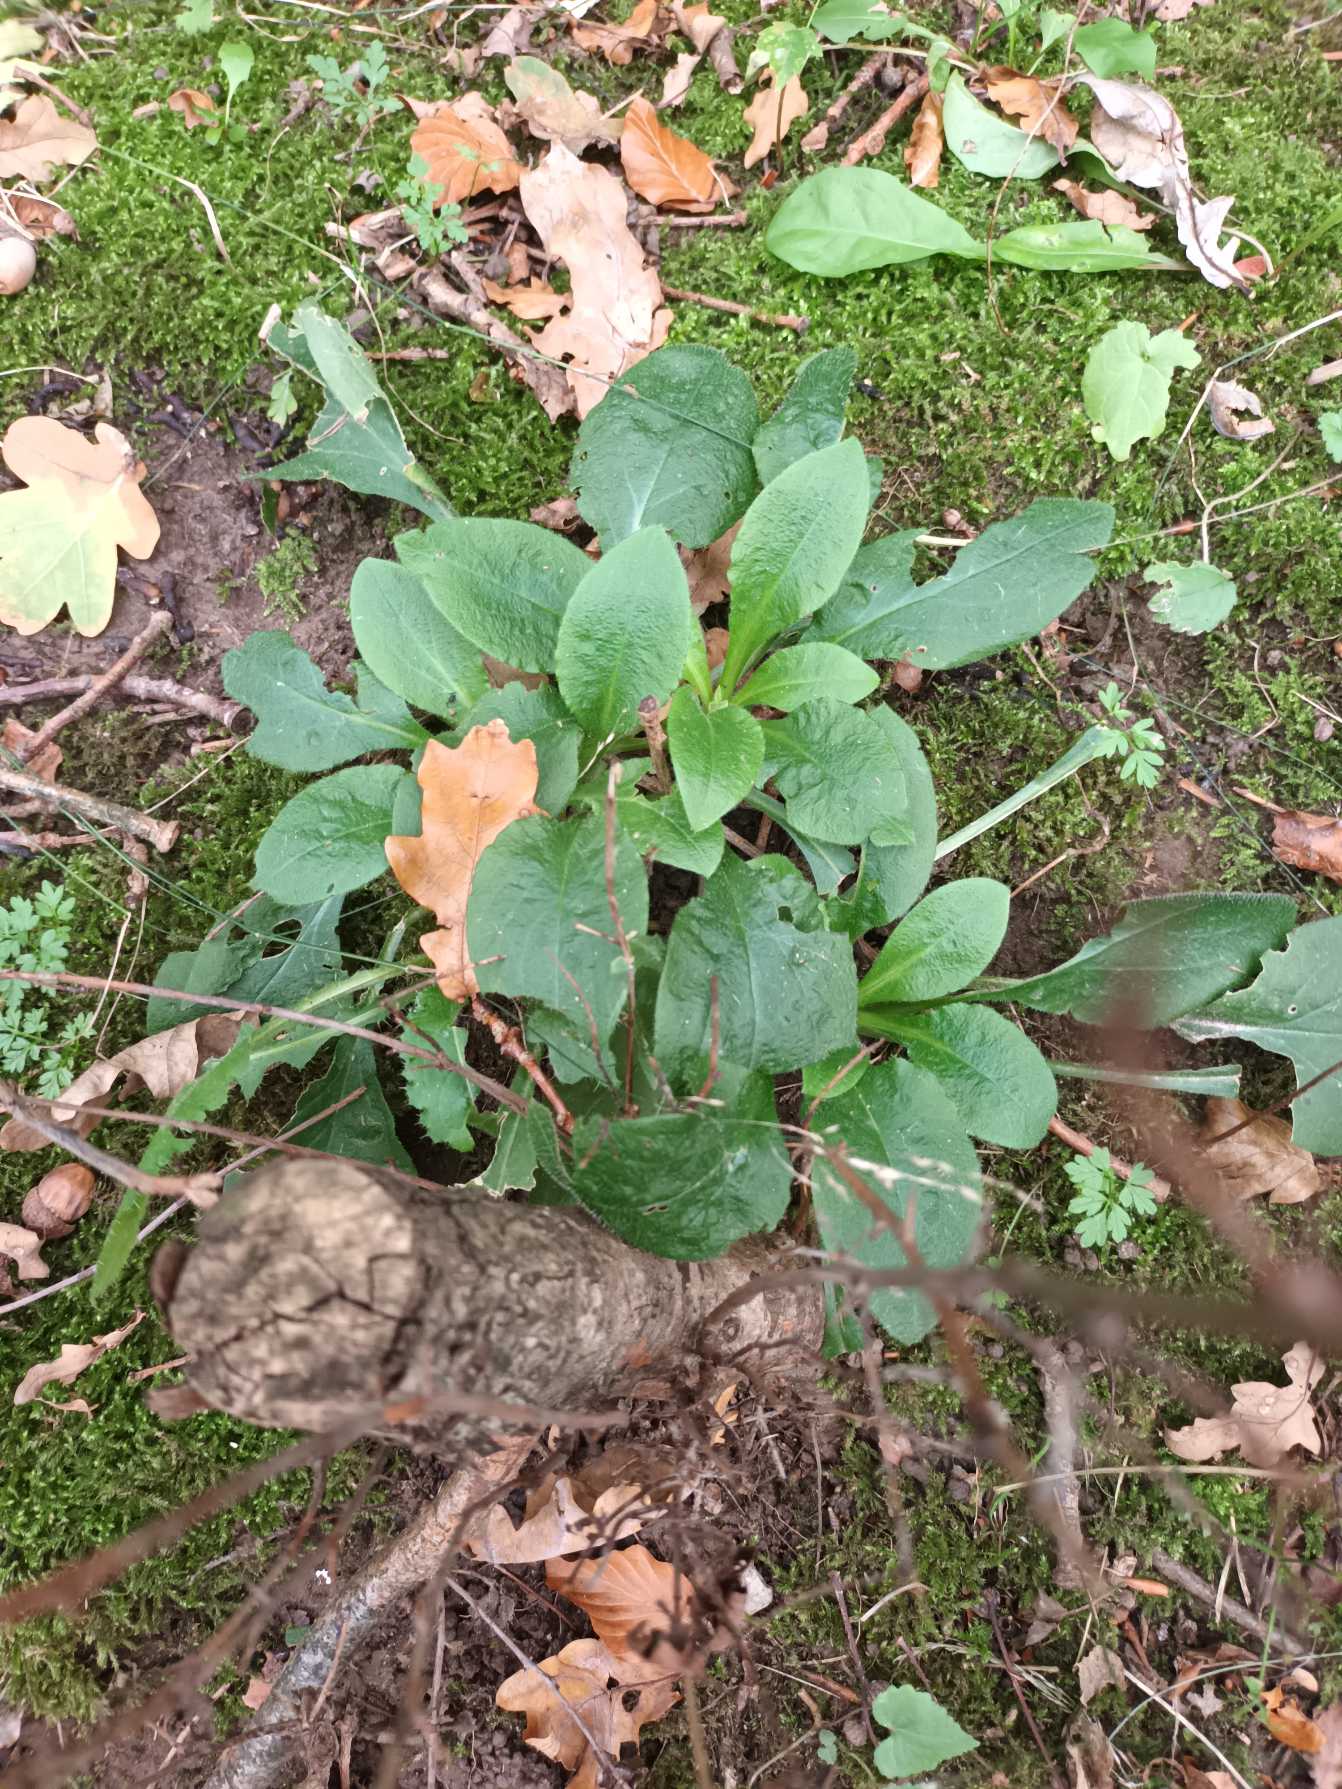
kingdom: Plantae
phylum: Tracheophyta
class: Magnoliopsida
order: Caryophyllales
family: Caryophyllaceae
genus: Silene
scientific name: Silene dioica
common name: Dagpragtstjerne
